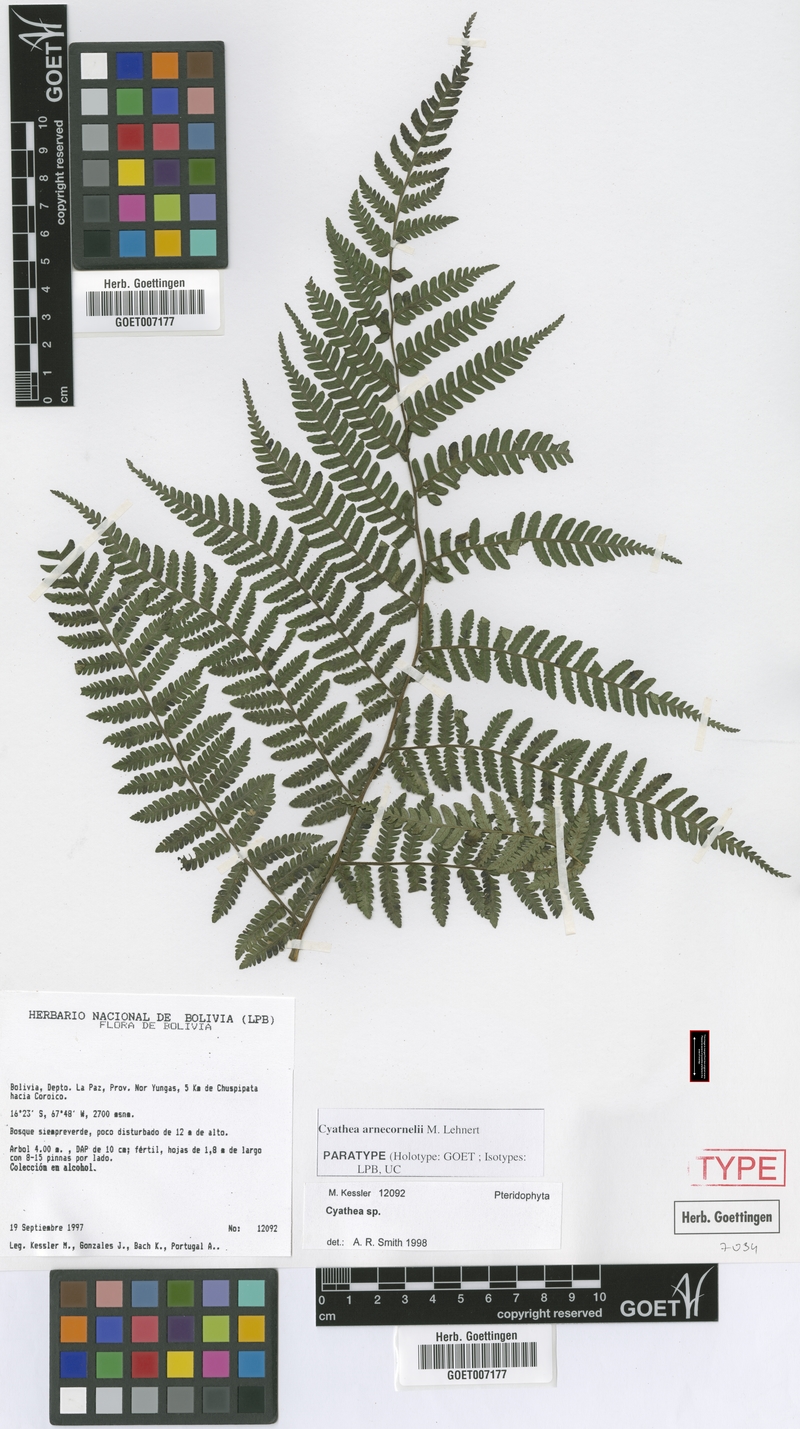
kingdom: Plantae
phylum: Tracheophyta
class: Polypodiopsida
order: Cyatheales
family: Cyatheaceae
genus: Cyathea
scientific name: Cyathea arnecornelii
